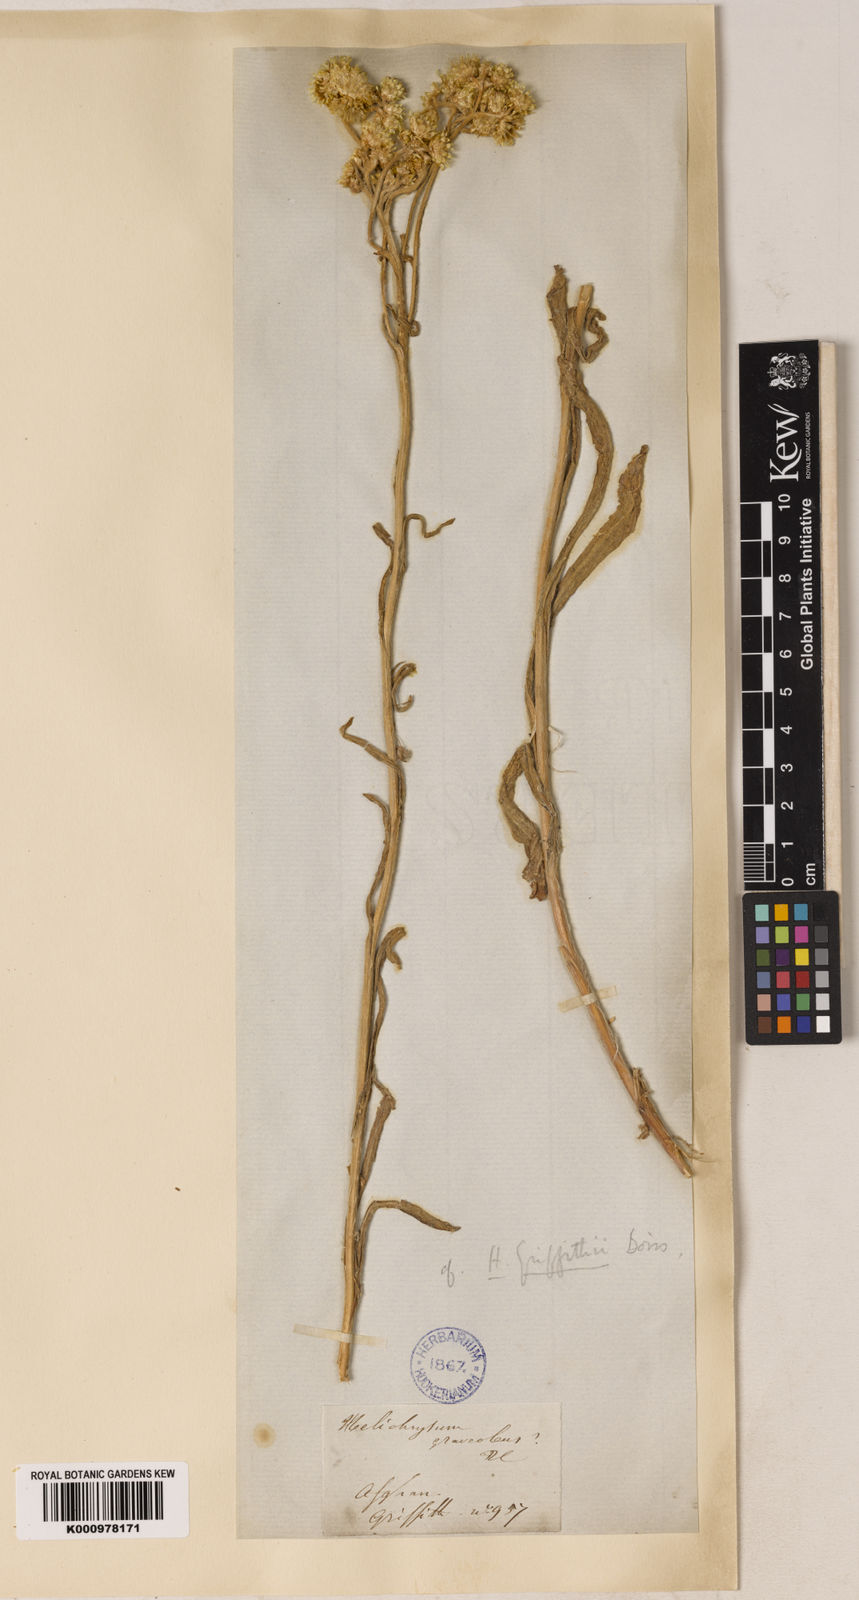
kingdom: Plantae
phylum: Tracheophyta
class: Magnoliopsida
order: Asterales
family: Asteraceae
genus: Pseudognaphalium
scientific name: Pseudognaphalium affine
